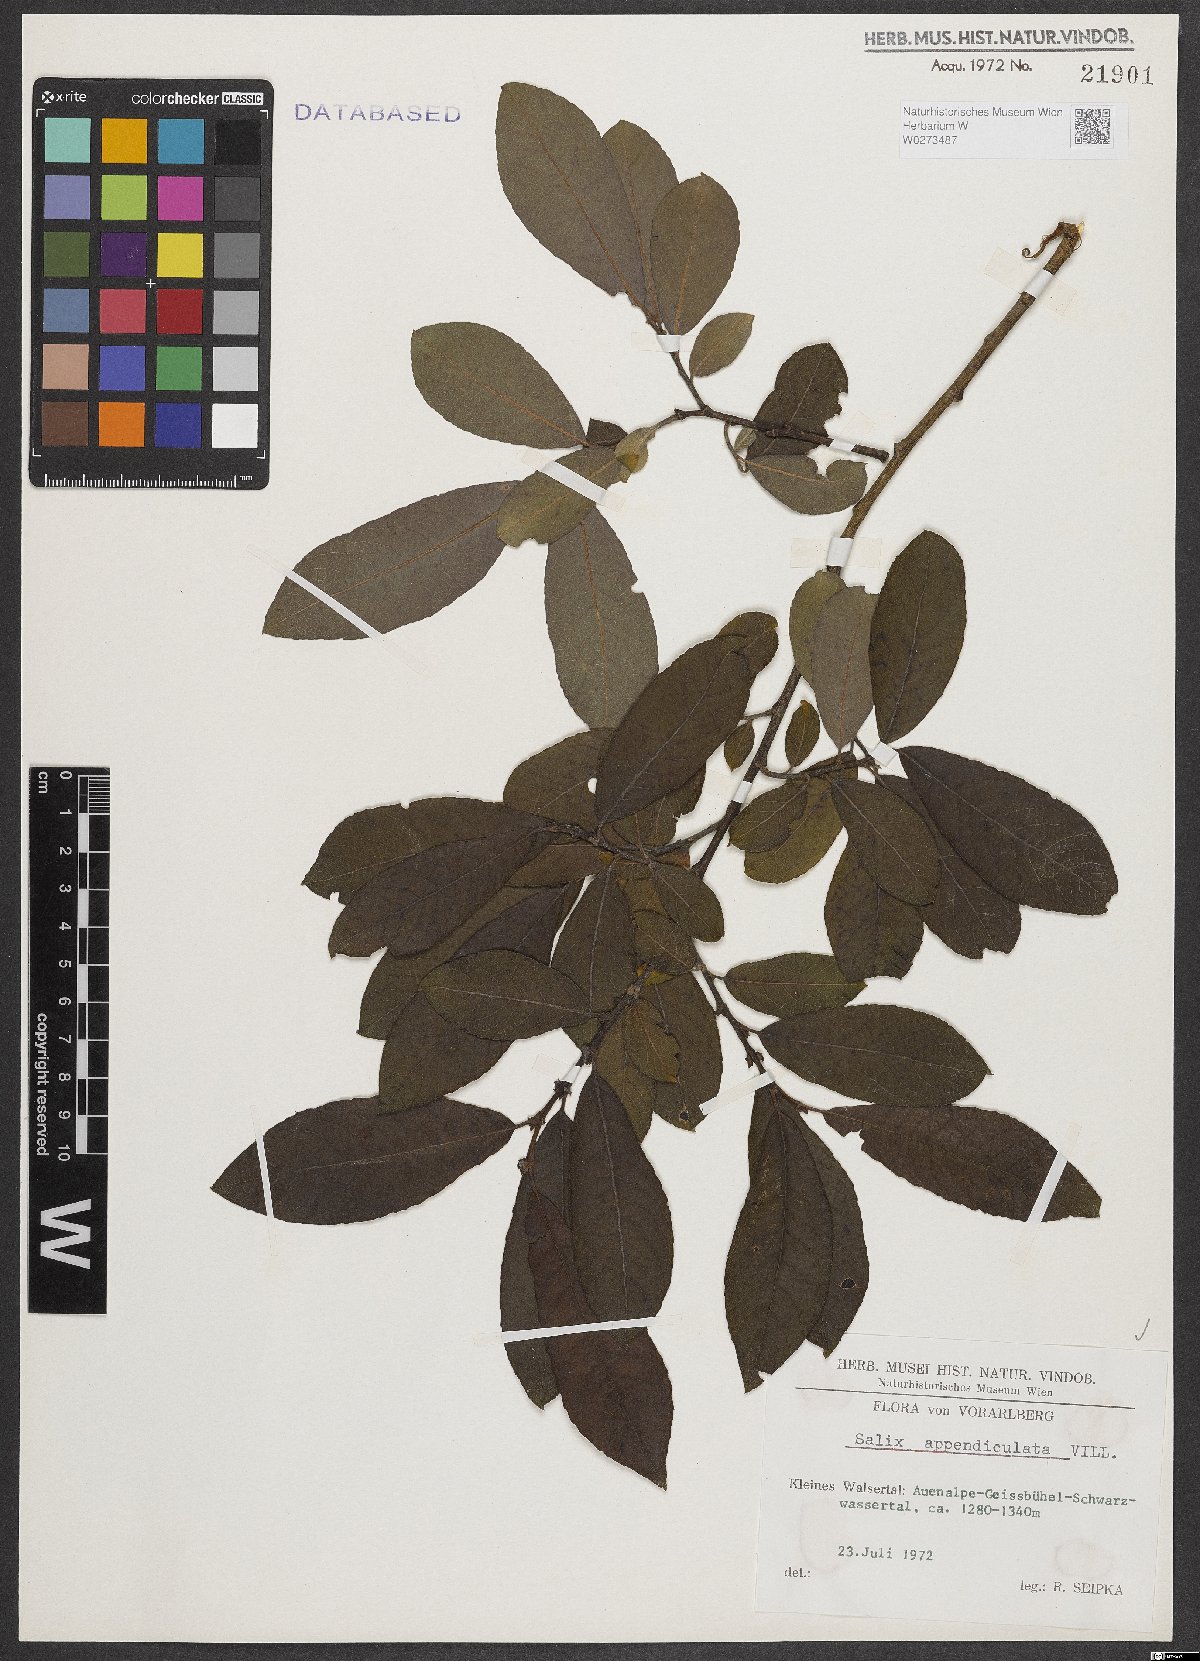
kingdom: Plantae
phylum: Tracheophyta
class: Magnoliopsida
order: Malpighiales
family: Salicaceae
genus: Salix
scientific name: Salix appendiculata
